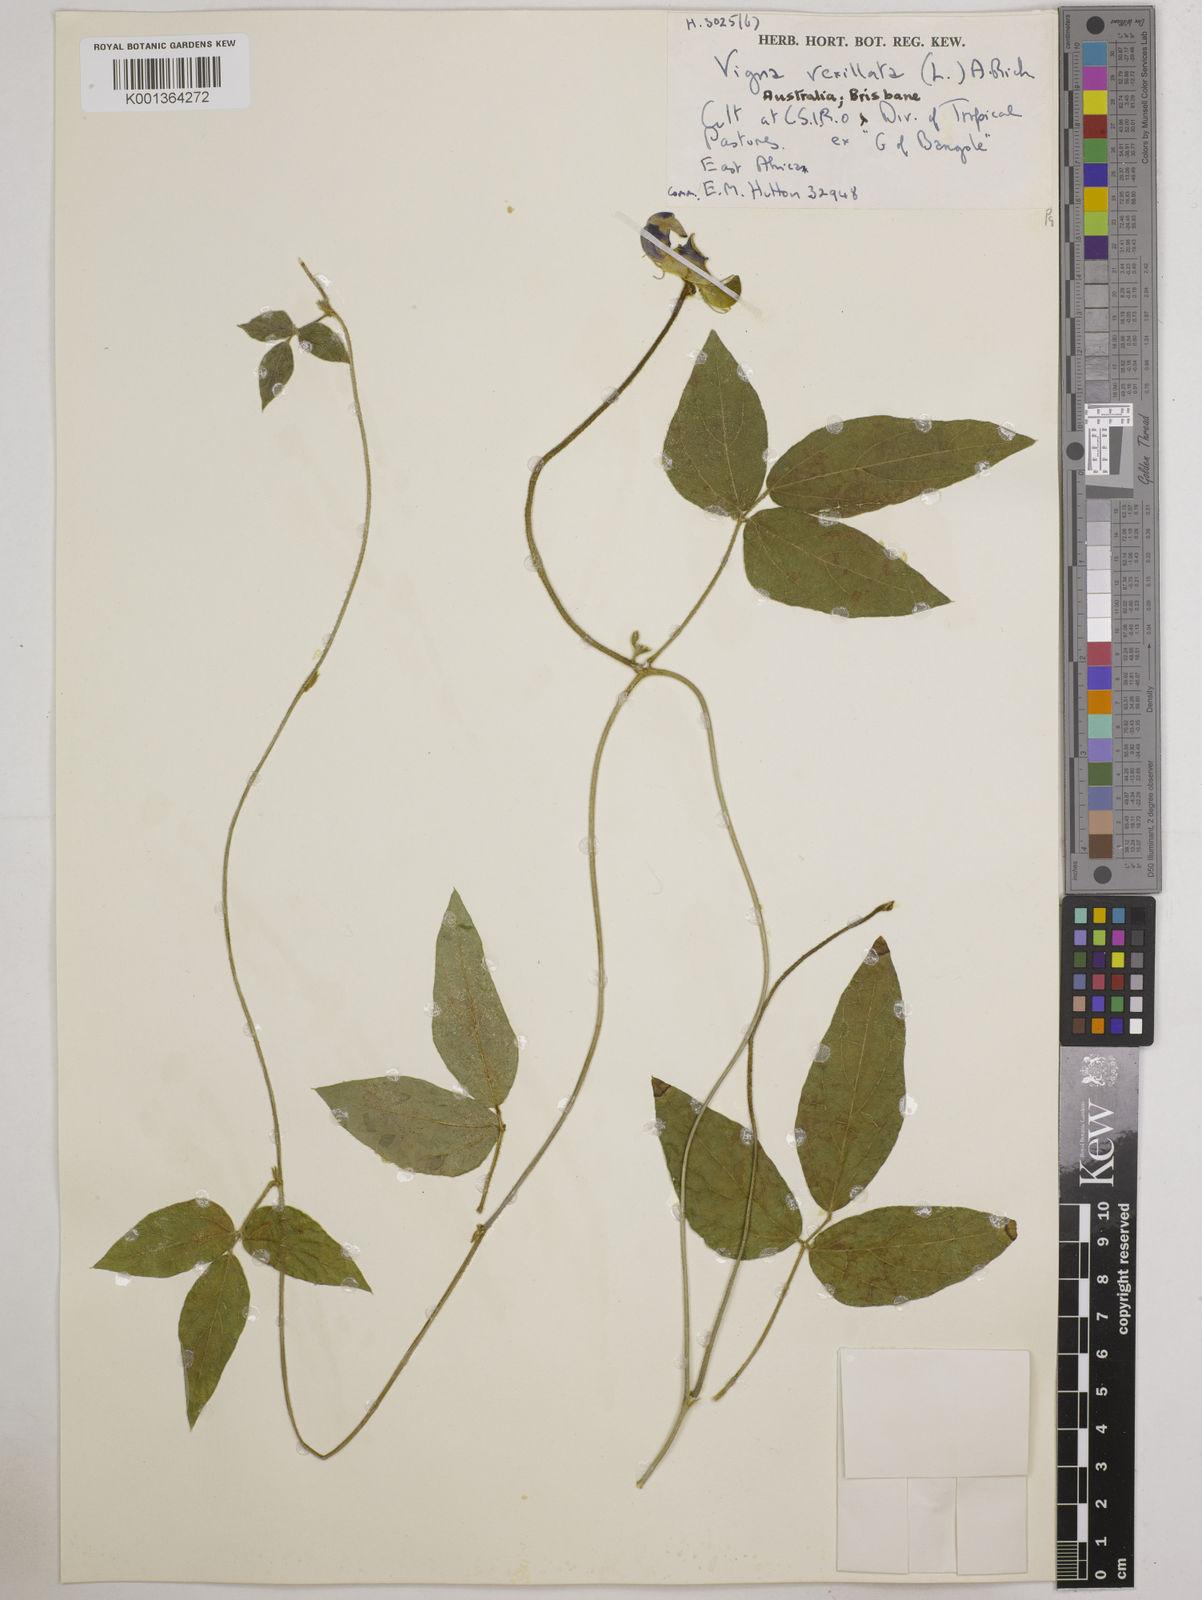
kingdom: Plantae
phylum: Tracheophyta
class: Magnoliopsida
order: Fabales
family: Fabaceae
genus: Vigna
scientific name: Vigna vexillata
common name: Zombi pea
